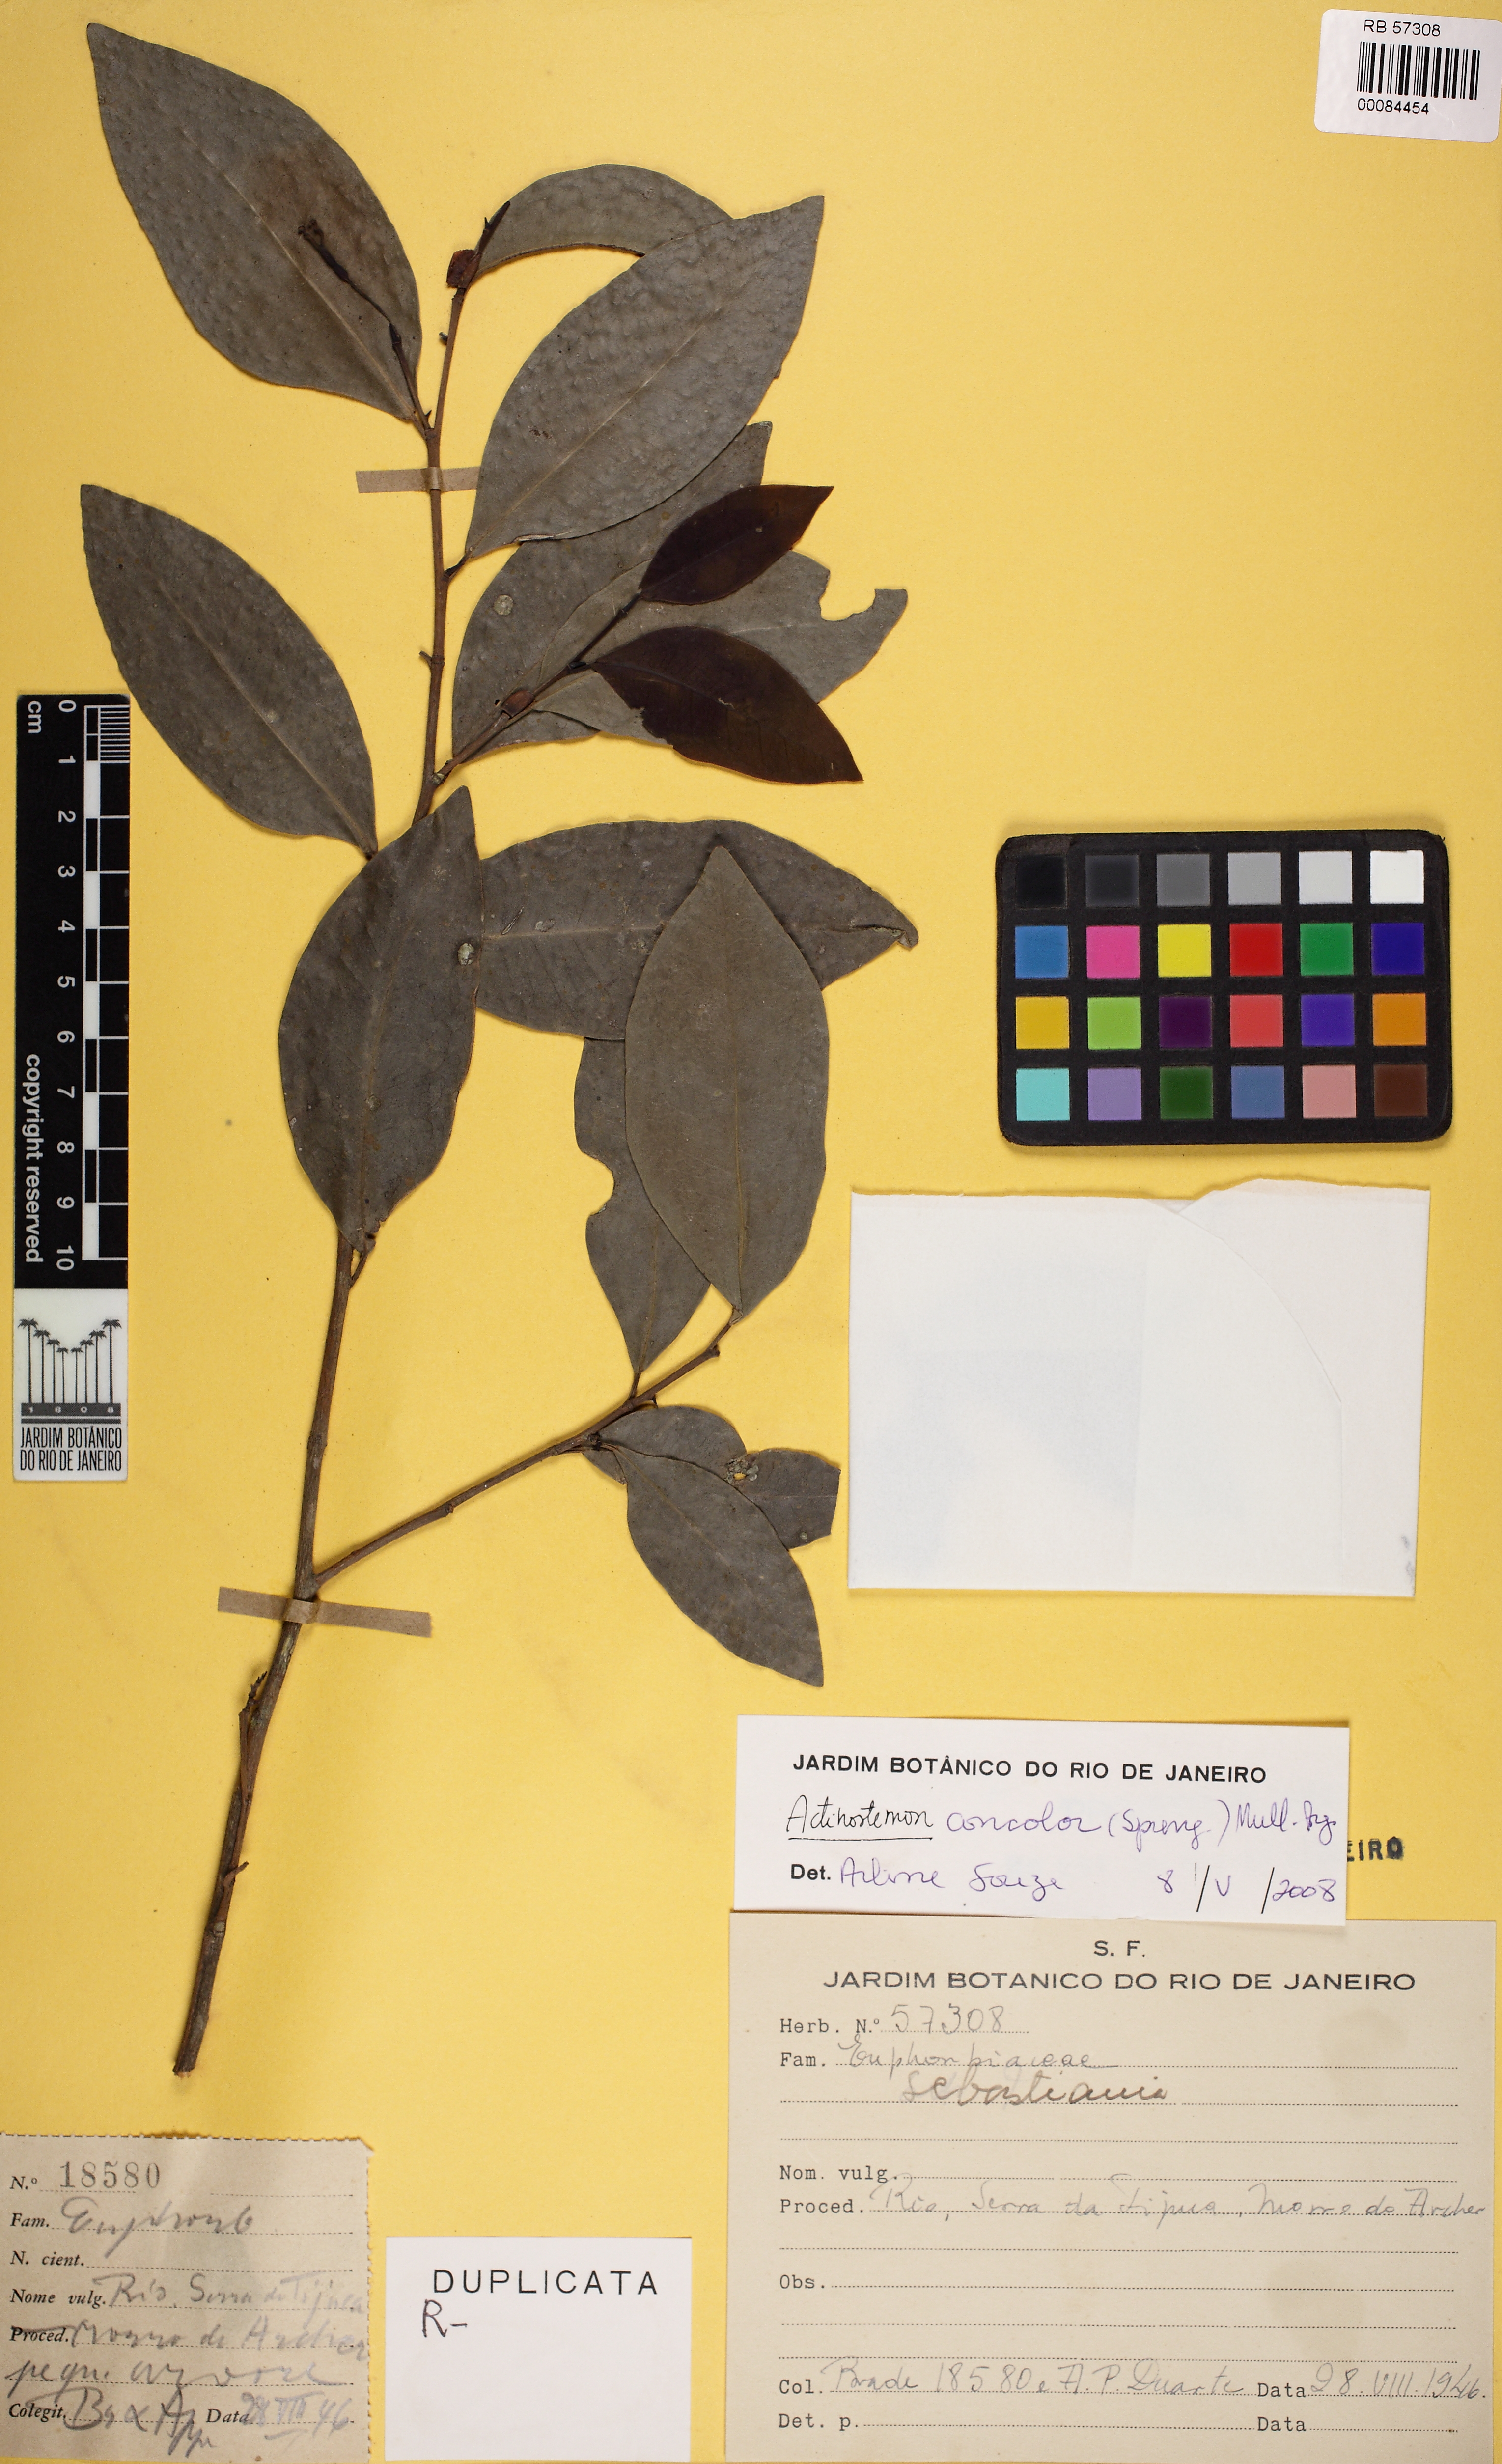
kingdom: Plantae
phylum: Tracheophyta
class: Magnoliopsida
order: Malpighiales
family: Euphorbiaceae
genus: Actinostemon
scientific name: Actinostemon concolor
